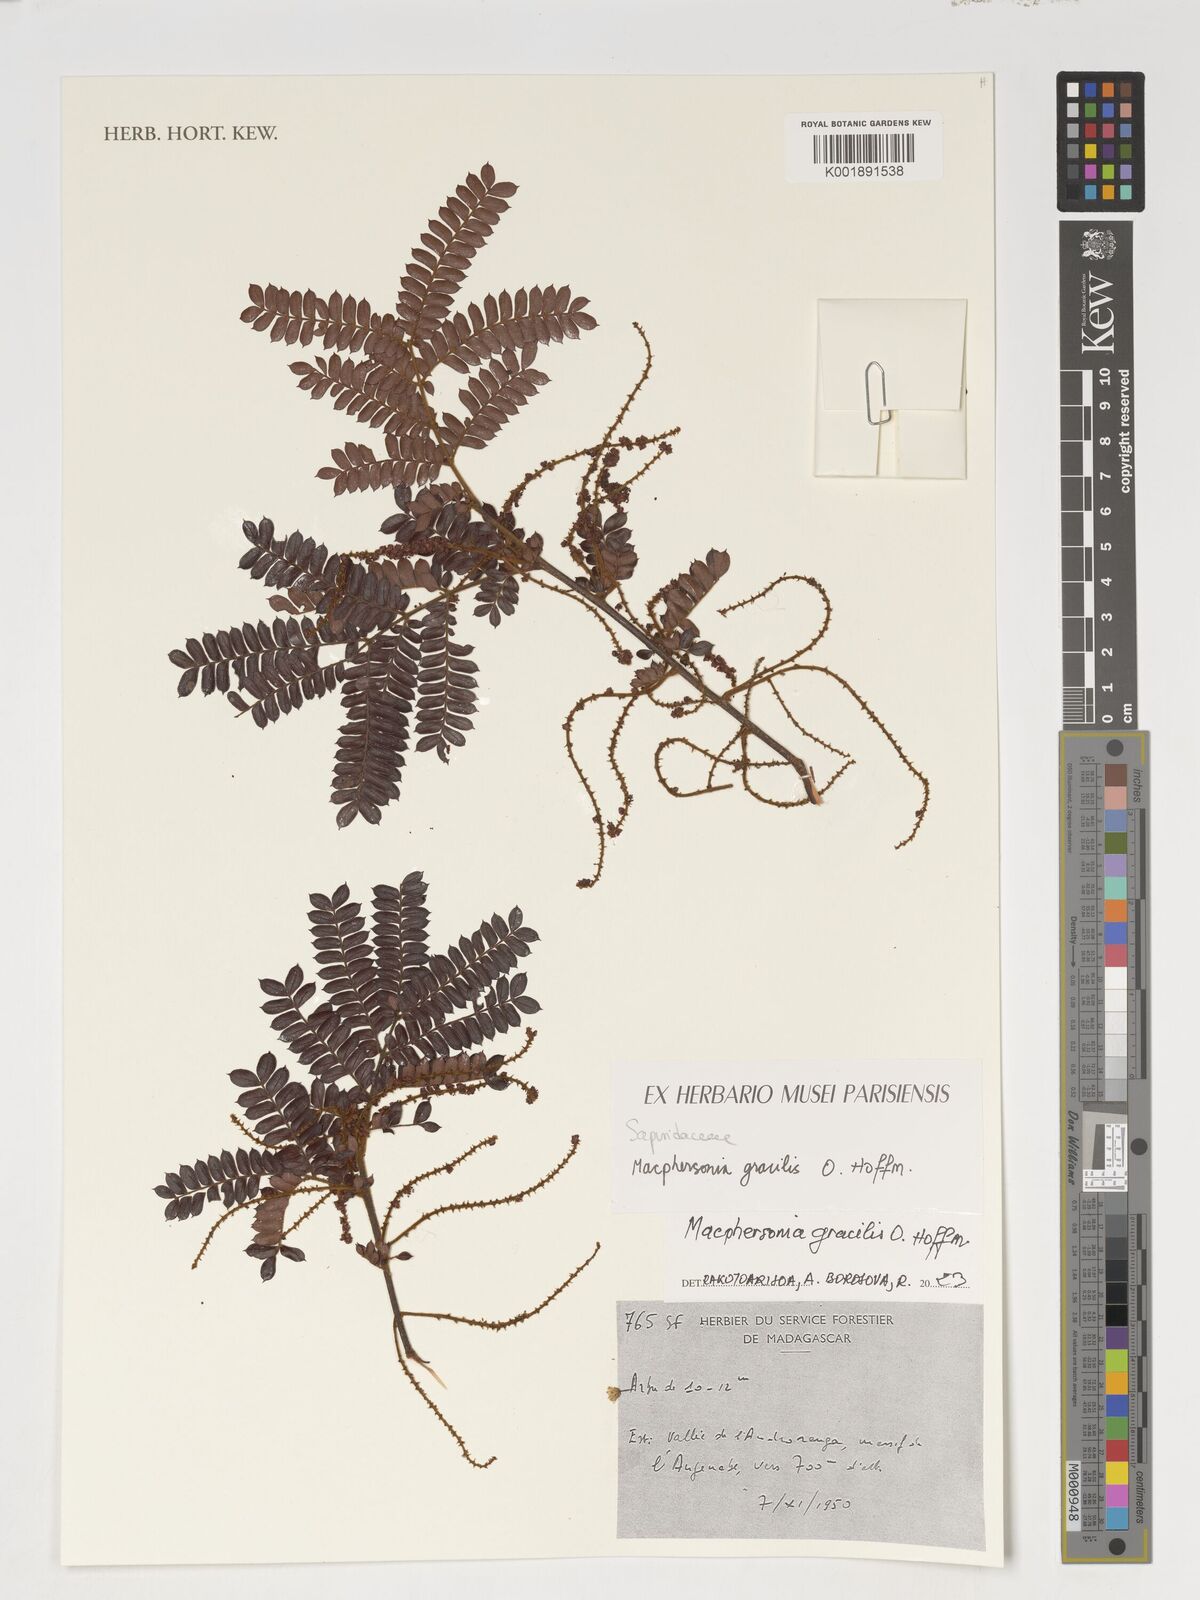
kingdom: Plantae
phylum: Tracheophyta
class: Magnoliopsida
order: Sapindales
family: Sapindaceae
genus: Macphersonia
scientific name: Macphersonia gracilis
